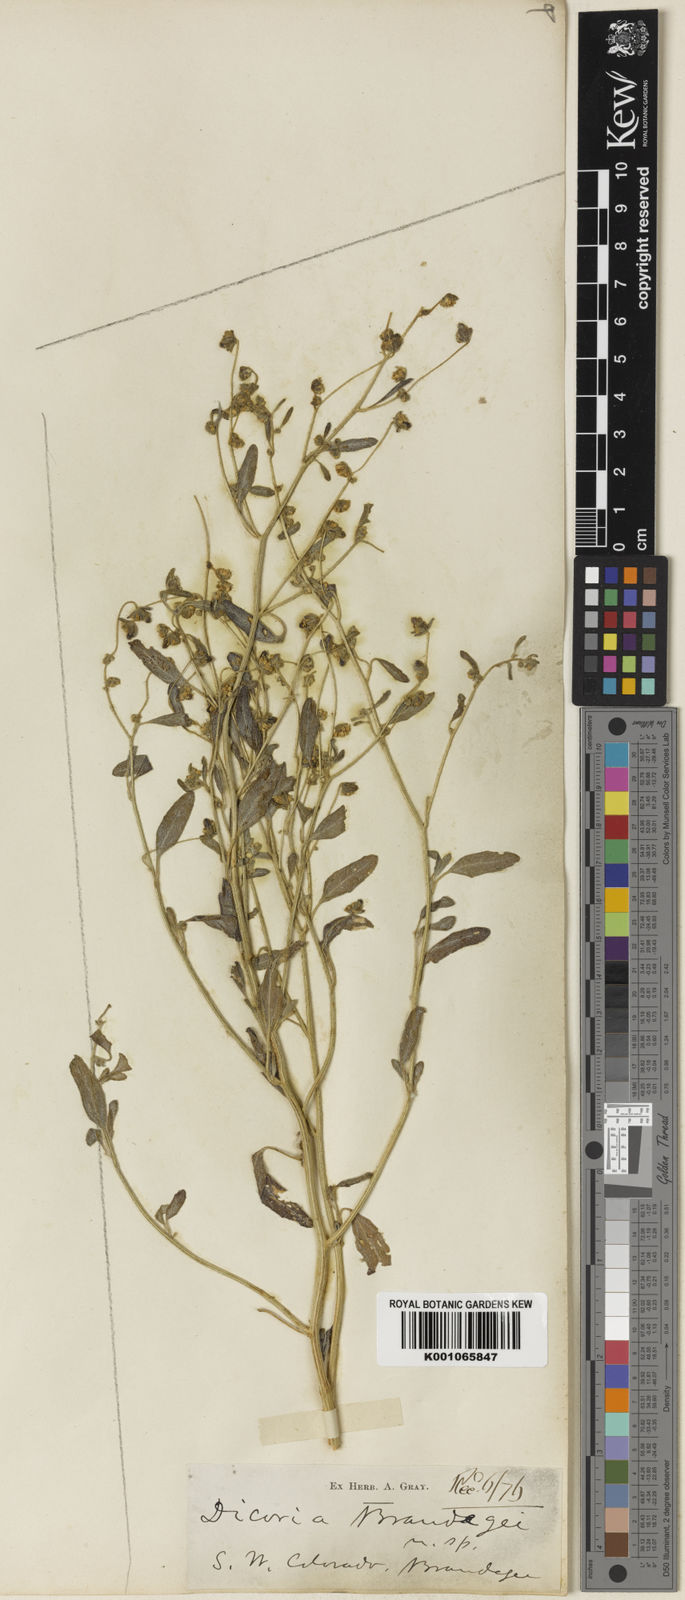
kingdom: Plantae
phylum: Tracheophyta
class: Magnoliopsida
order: Asterales
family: Asteraceae
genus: Dicoria
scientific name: Dicoria canescens
